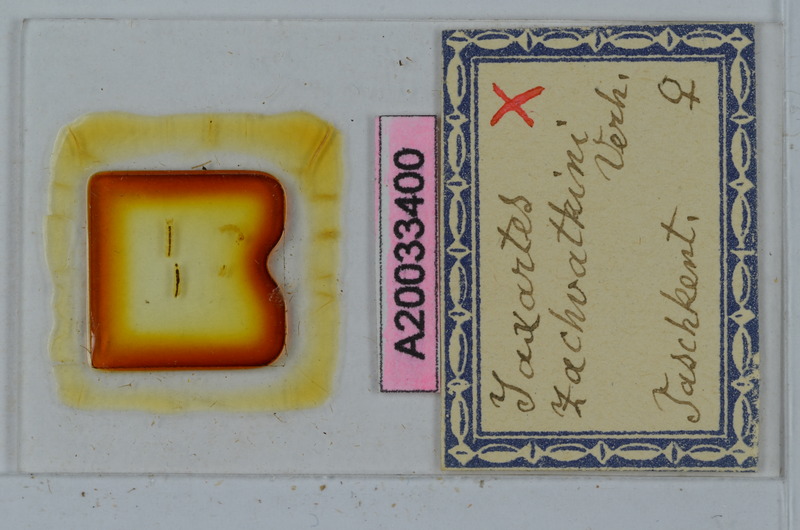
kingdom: Animalia
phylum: Arthropoda
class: Diplopoda
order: Polydesmida
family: Polydesmidae
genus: Jaxartes
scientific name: Jaxartes zachvatkini
